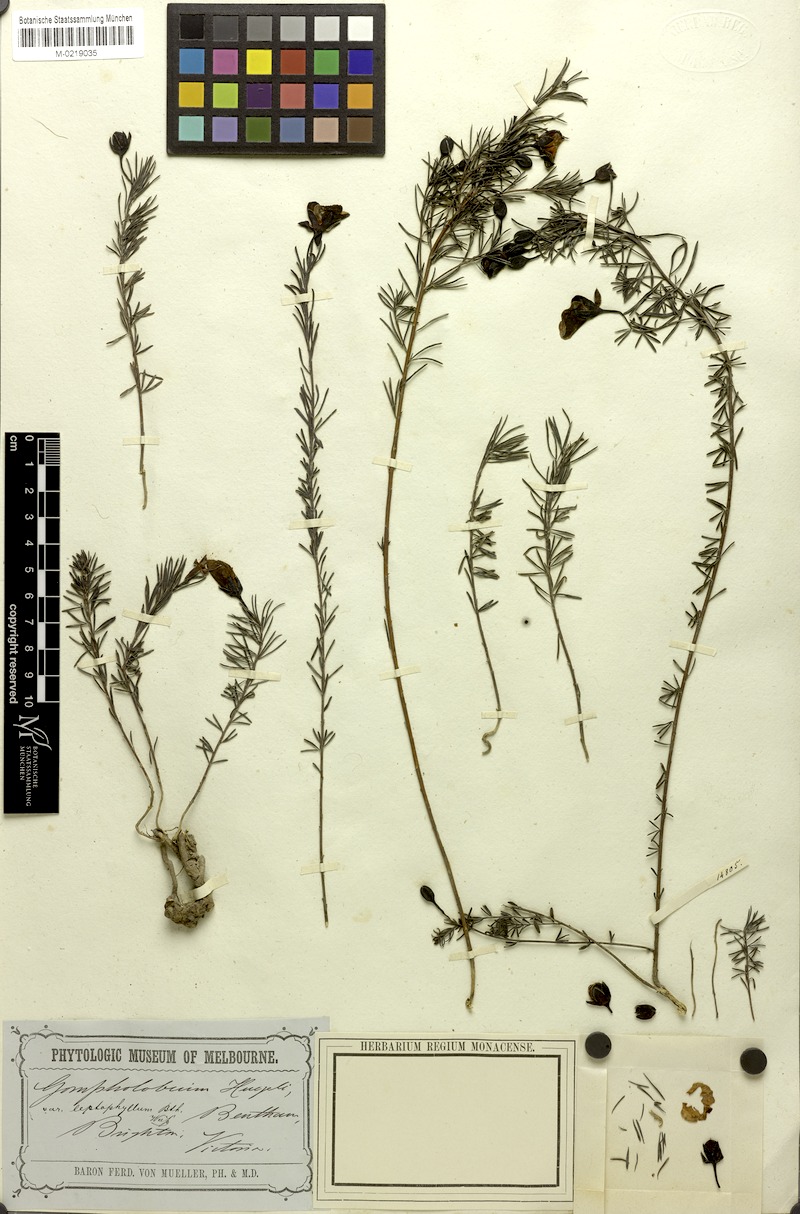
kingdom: Plantae
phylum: Tracheophyta
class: Magnoliopsida
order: Fabales
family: Fabaceae
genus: Gompholobium
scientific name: Gompholobium huegelii
